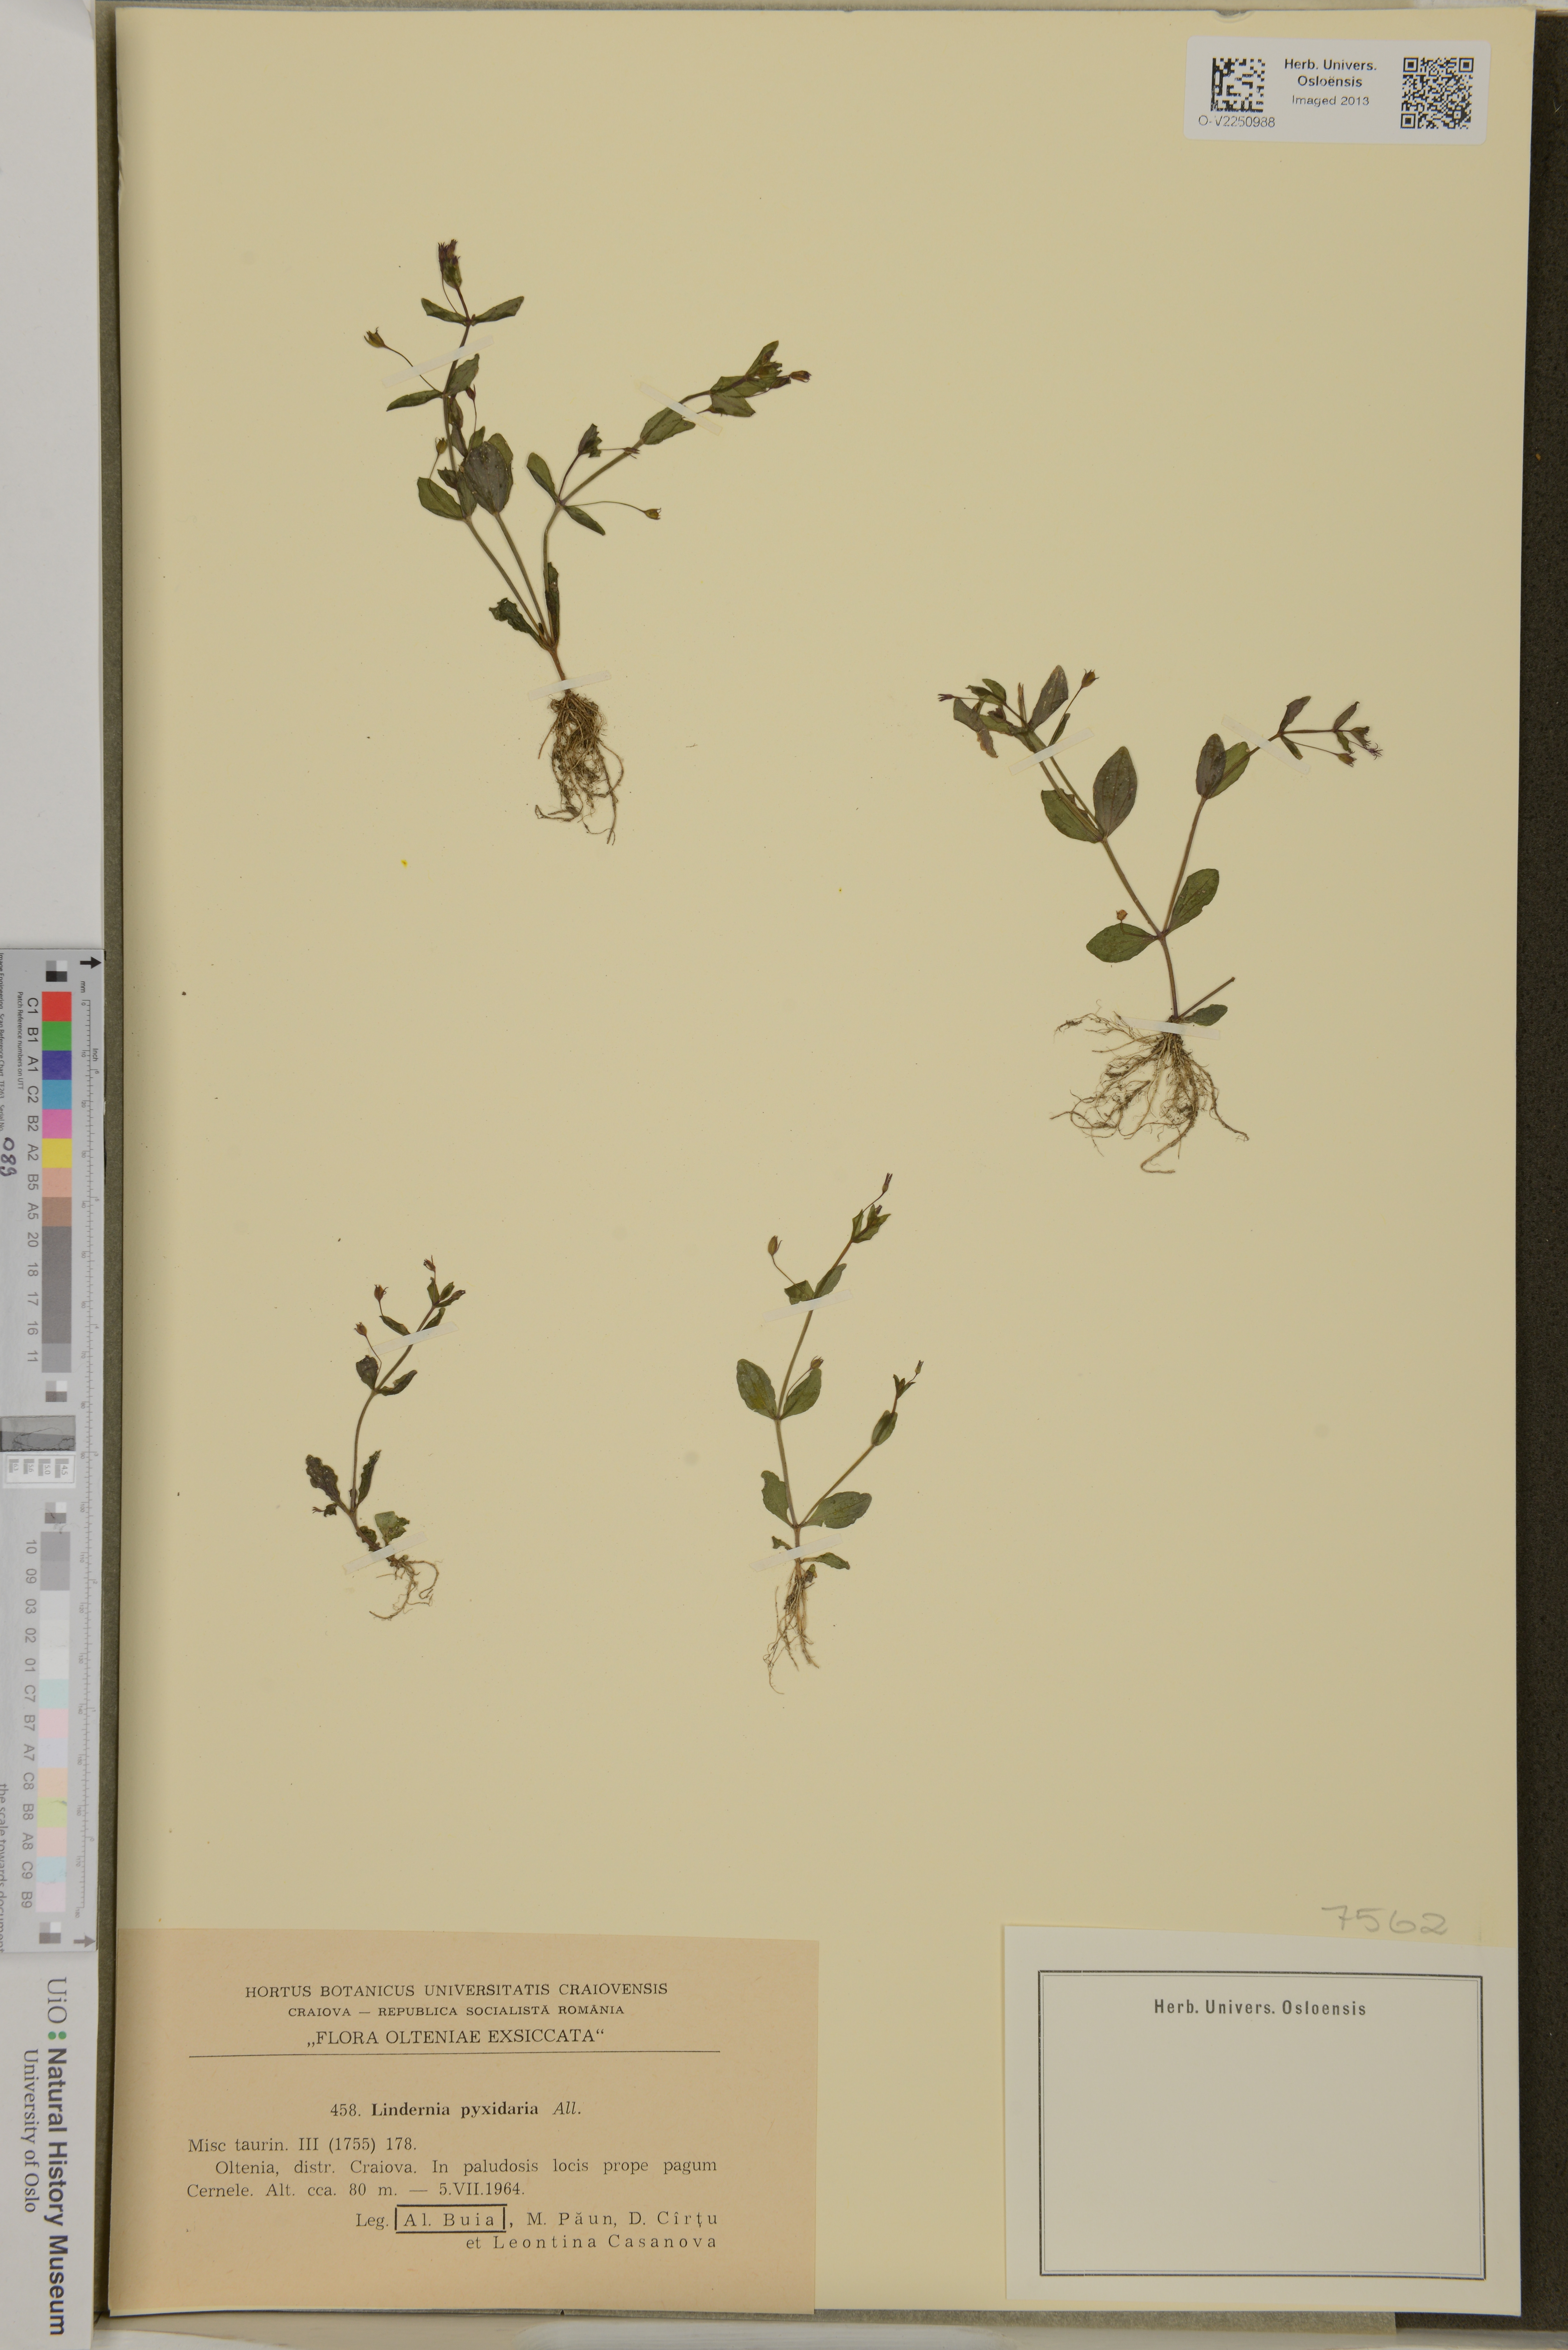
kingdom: Plantae
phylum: Tracheophyta
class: Magnoliopsida
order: Lamiales
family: Linderniaceae
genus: Lindernia
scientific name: Lindernia
